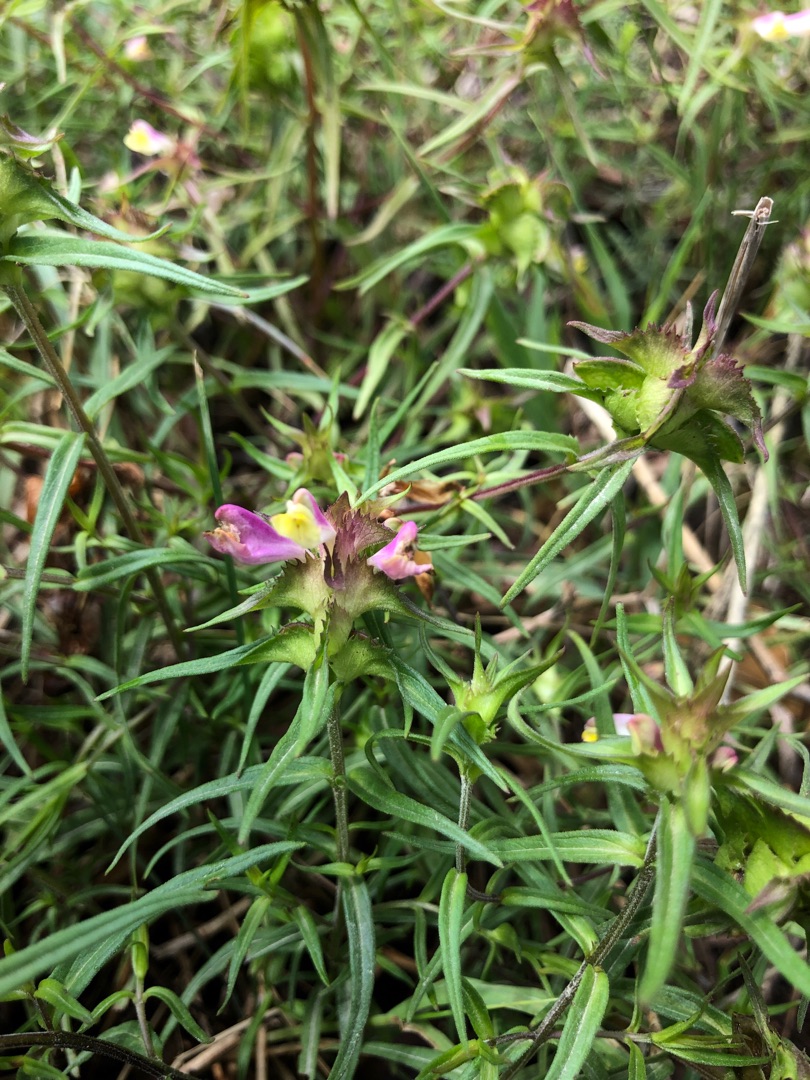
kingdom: Plantae
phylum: Tracheophyta
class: Magnoliopsida
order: Lamiales
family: Orobanchaceae
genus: Melampyrum
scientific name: Melampyrum cristatum
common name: Kantet kohvede
